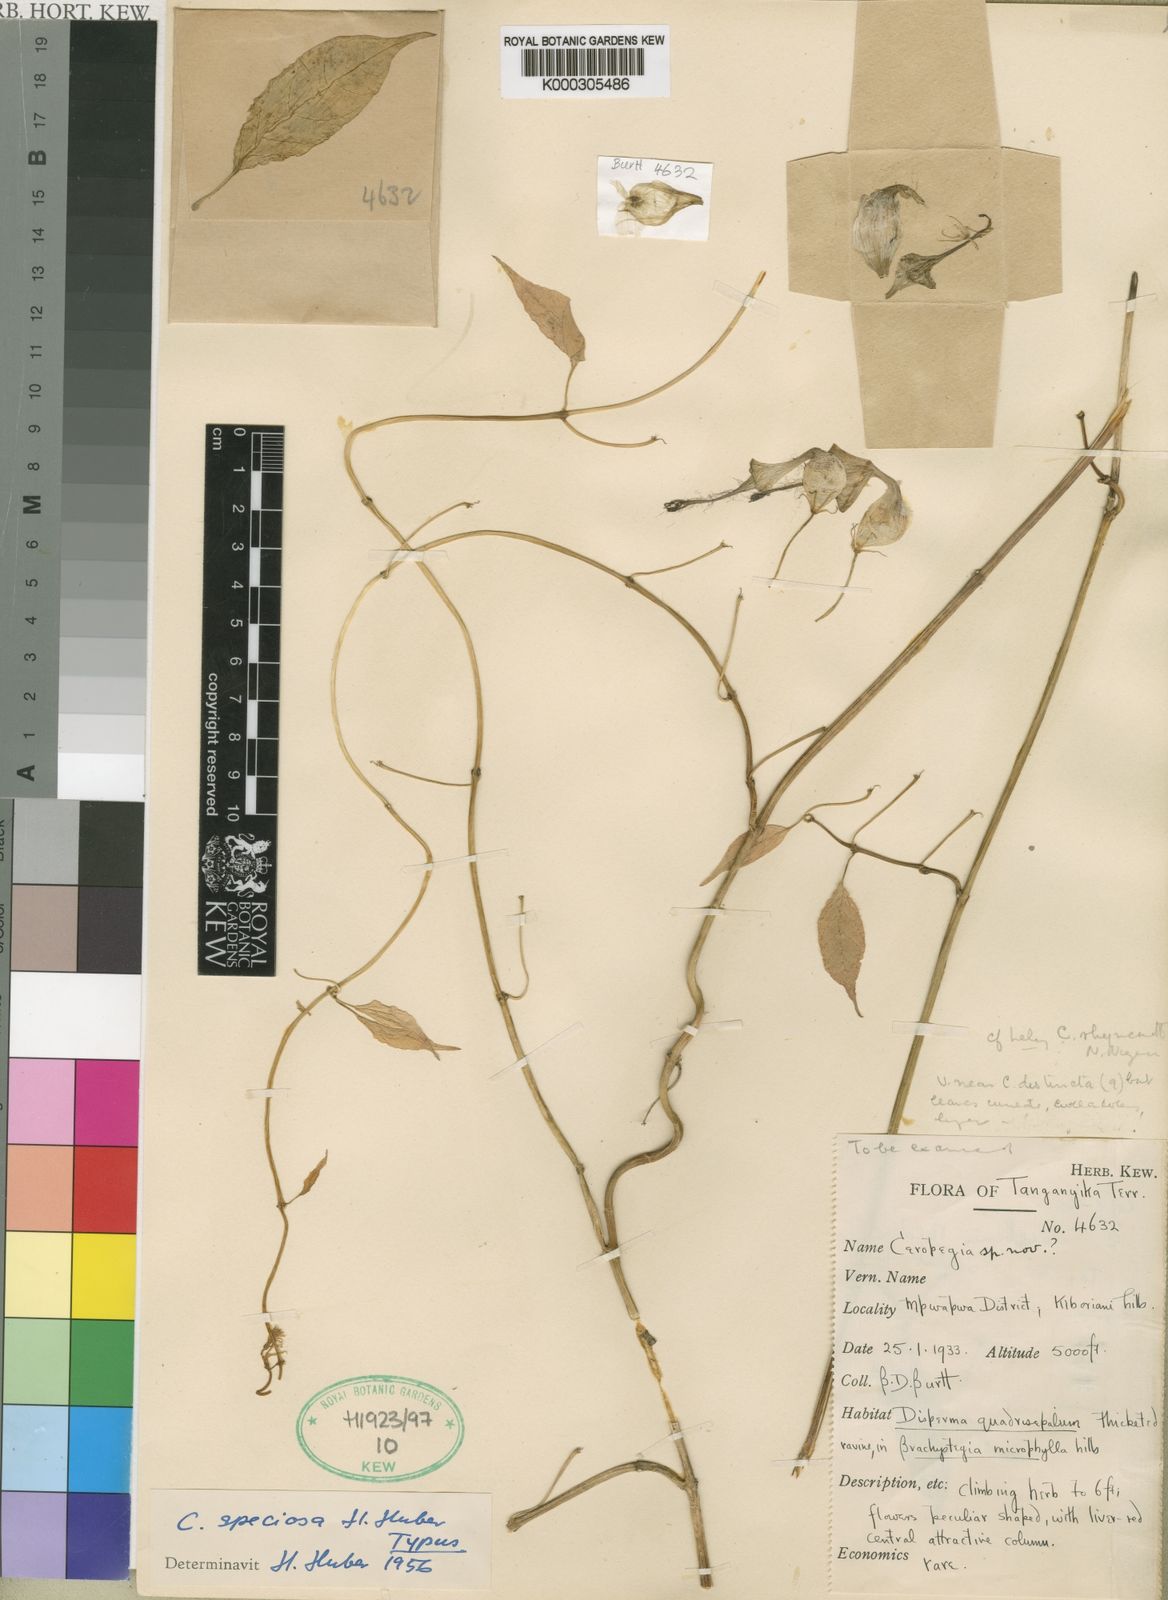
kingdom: Plantae
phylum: Tracheophyta
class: Magnoliopsida
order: Gentianales
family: Apocynaceae
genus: Ceropegia
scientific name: Ceropegia speciosa
